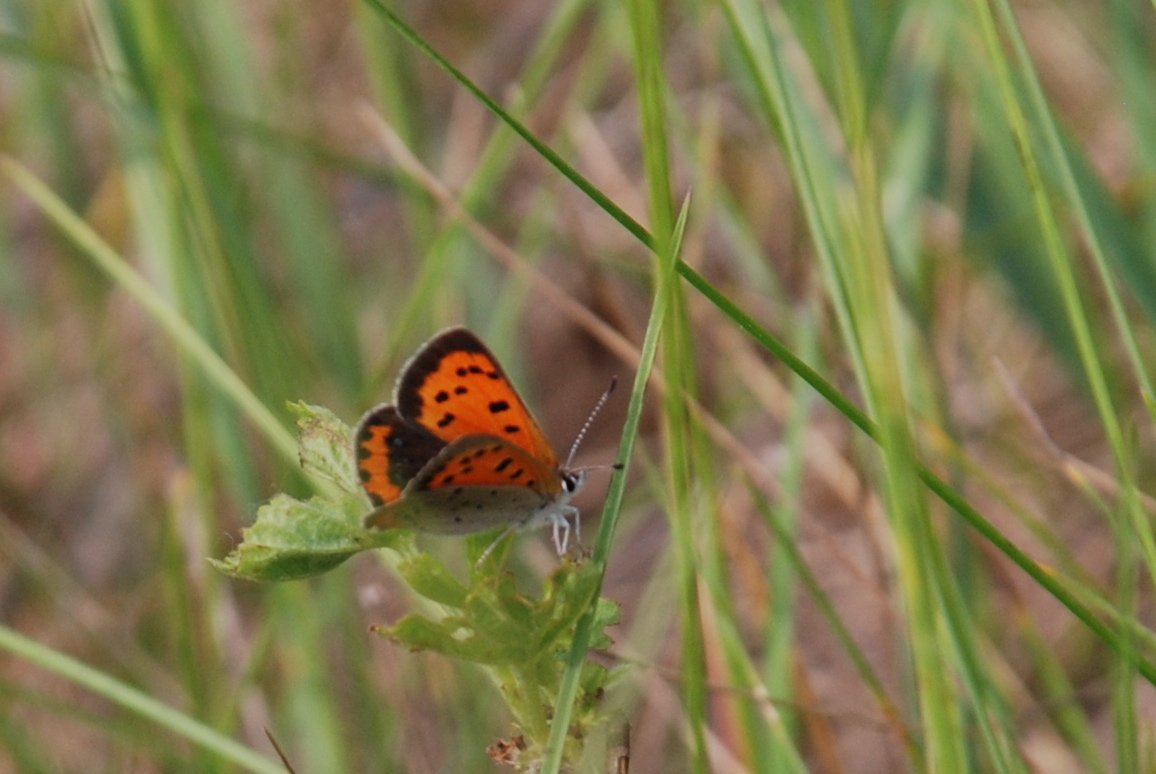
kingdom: Animalia
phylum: Arthropoda
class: Insecta
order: Lepidoptera
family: Lycaenidae
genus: Lycaena
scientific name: Lycaena phlaeas
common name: American Copper
